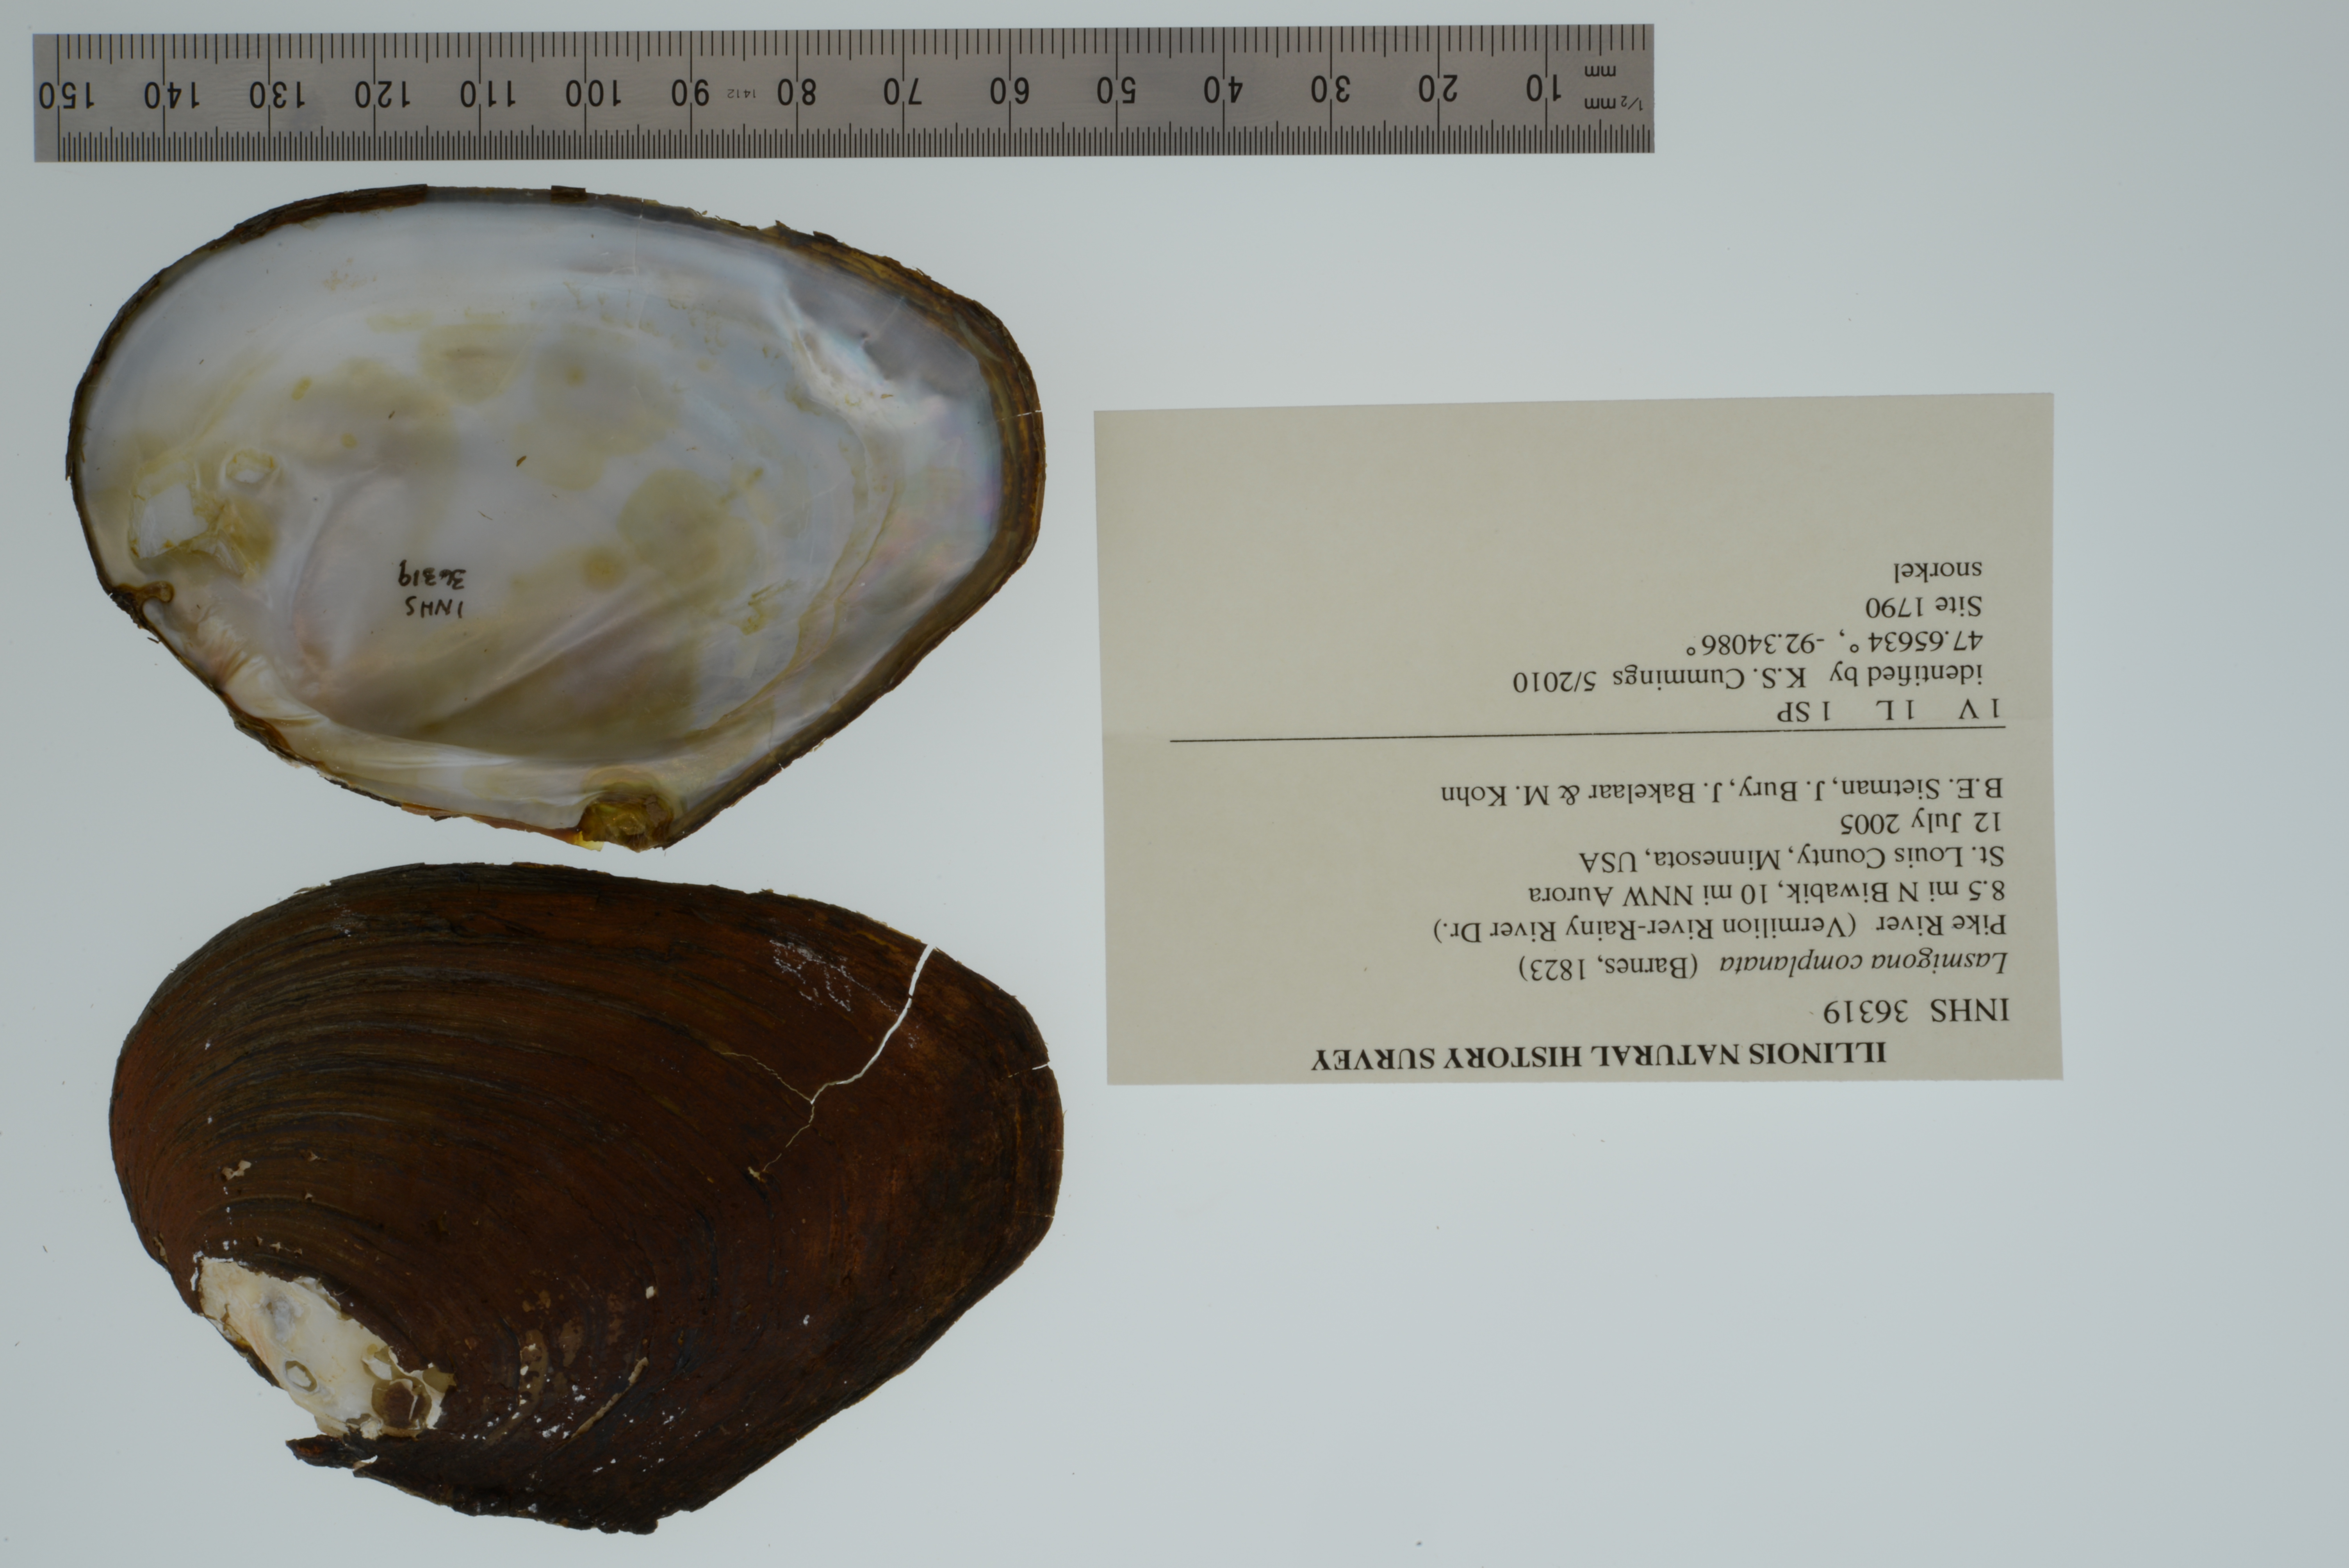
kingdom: Animalia
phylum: Mollusca
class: Bivalvia
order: Unionida
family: Unionidae
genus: Lasmigona
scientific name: Lasmigona complanata
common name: White heelsplitter
